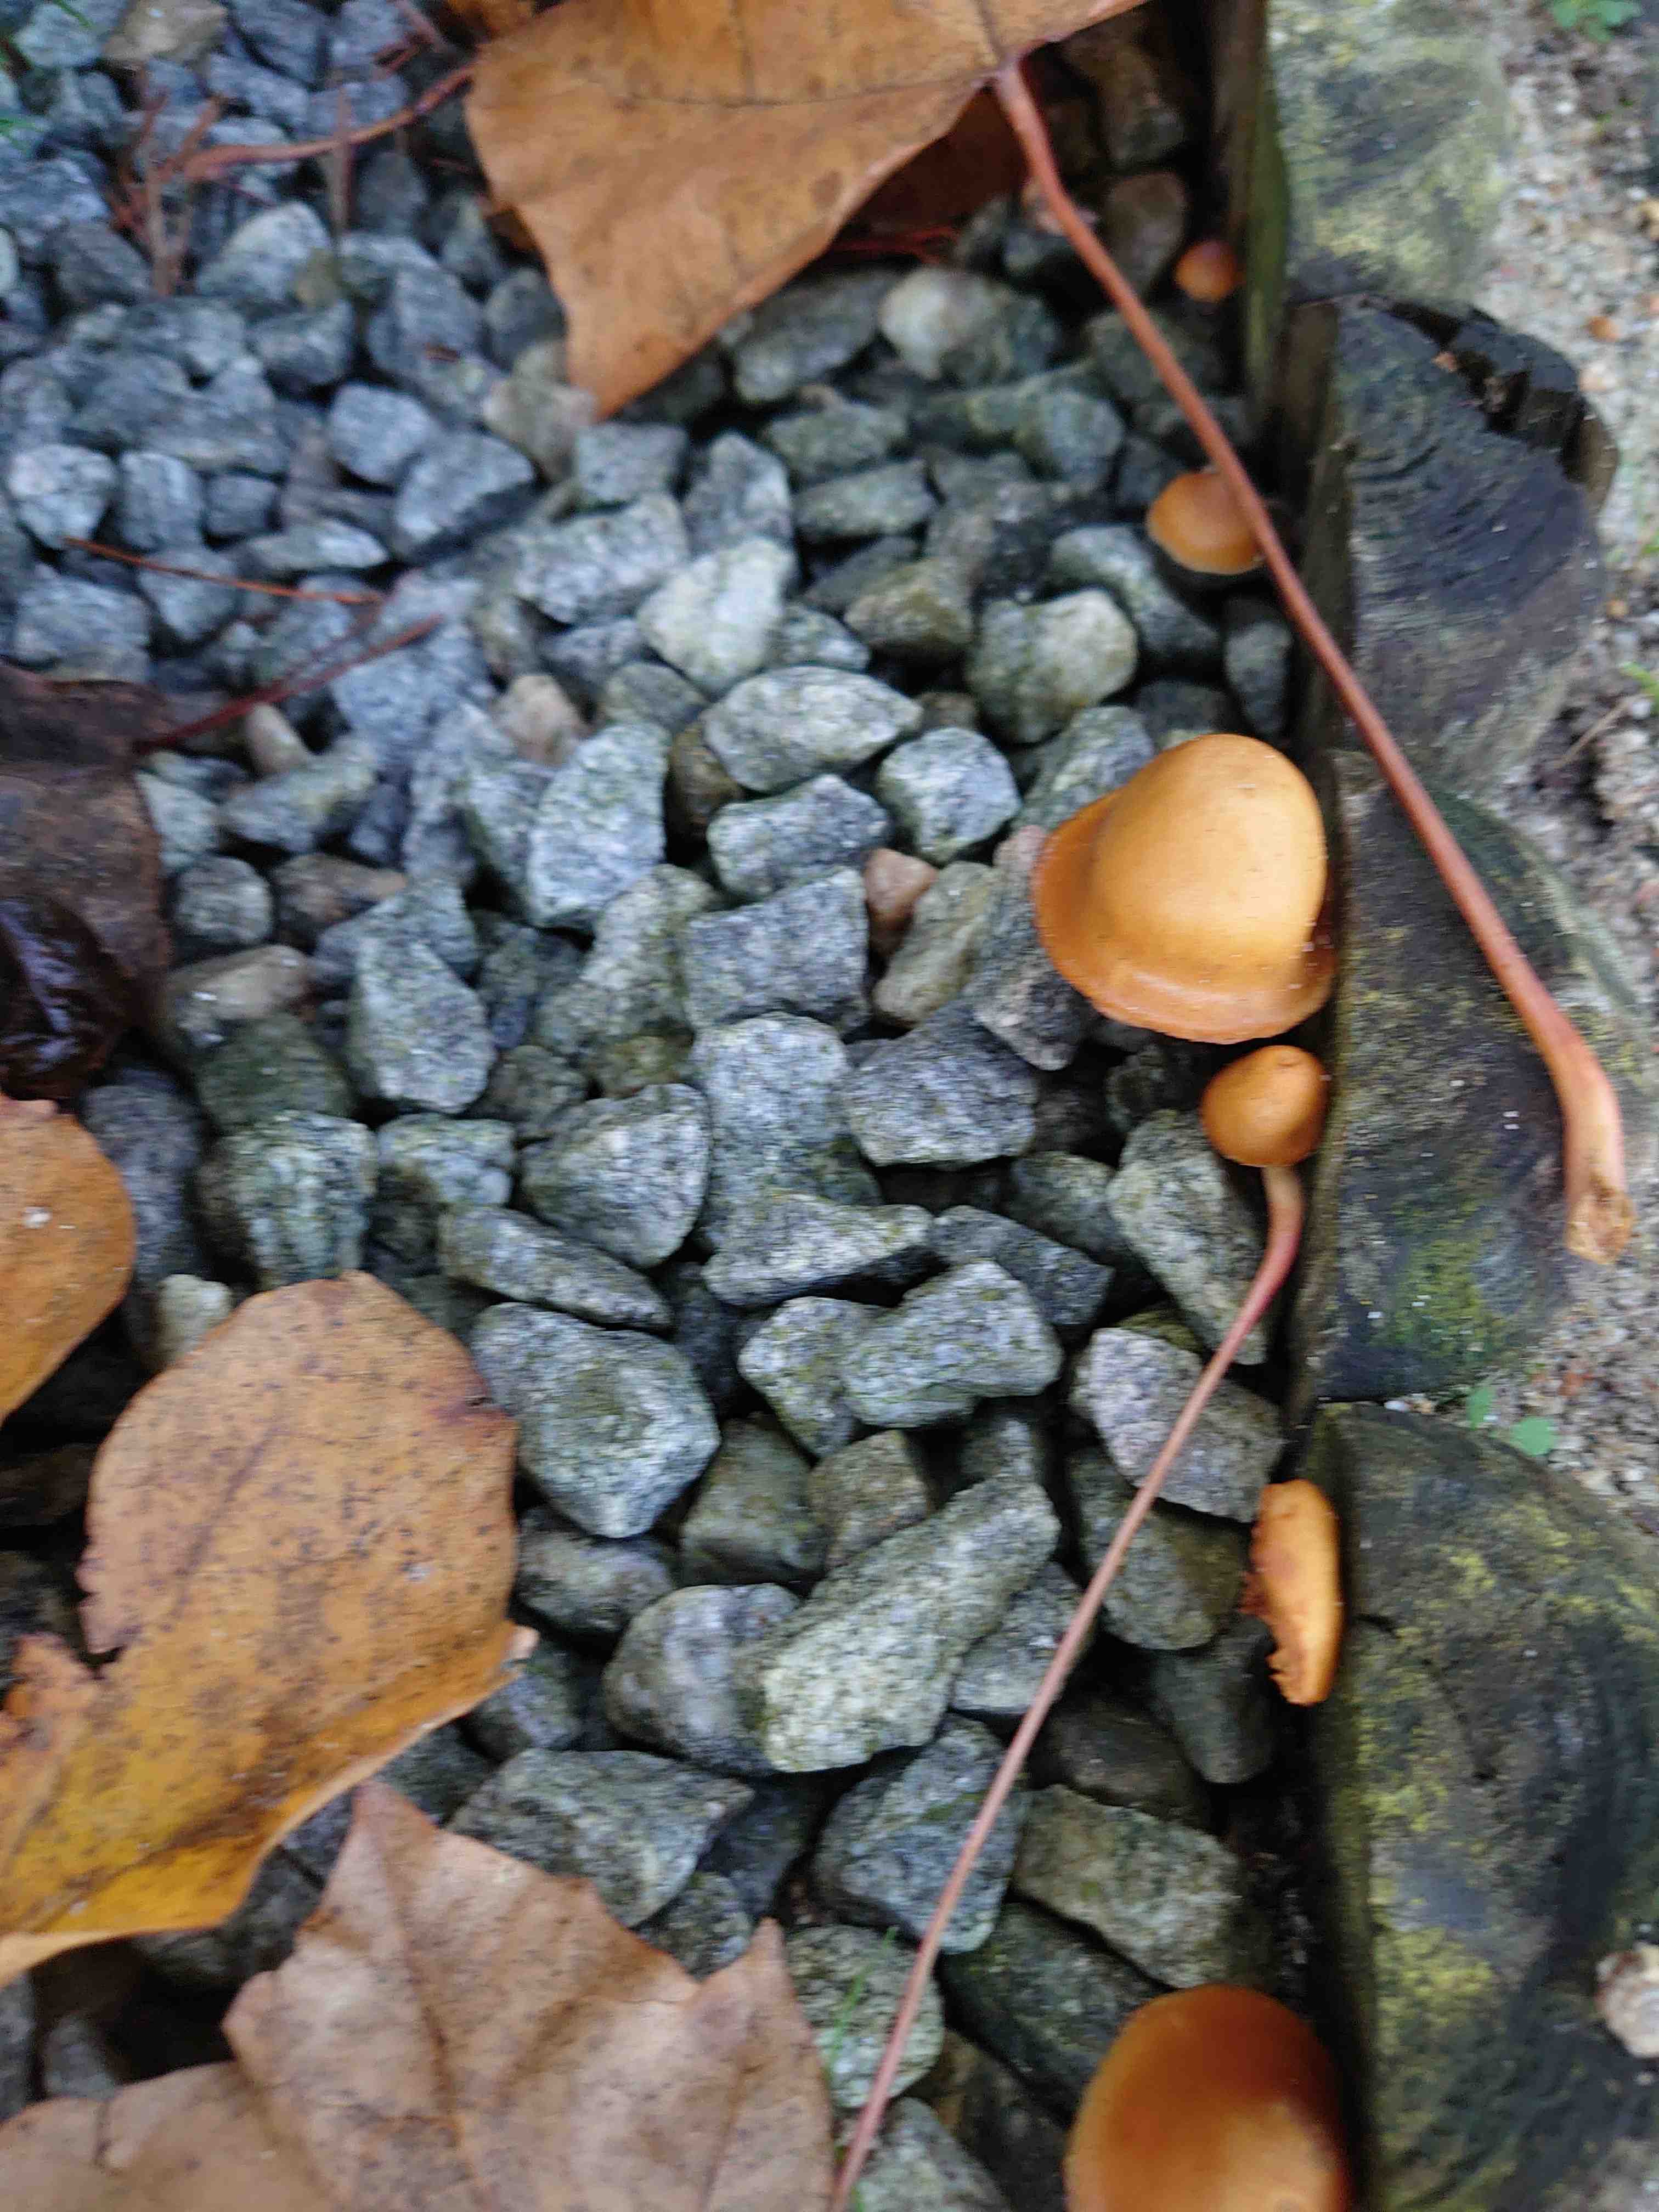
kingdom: Fungi
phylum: Basidiomycota
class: Agaricomycetes
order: Agaricales
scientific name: Agaricales
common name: champignonordenen
